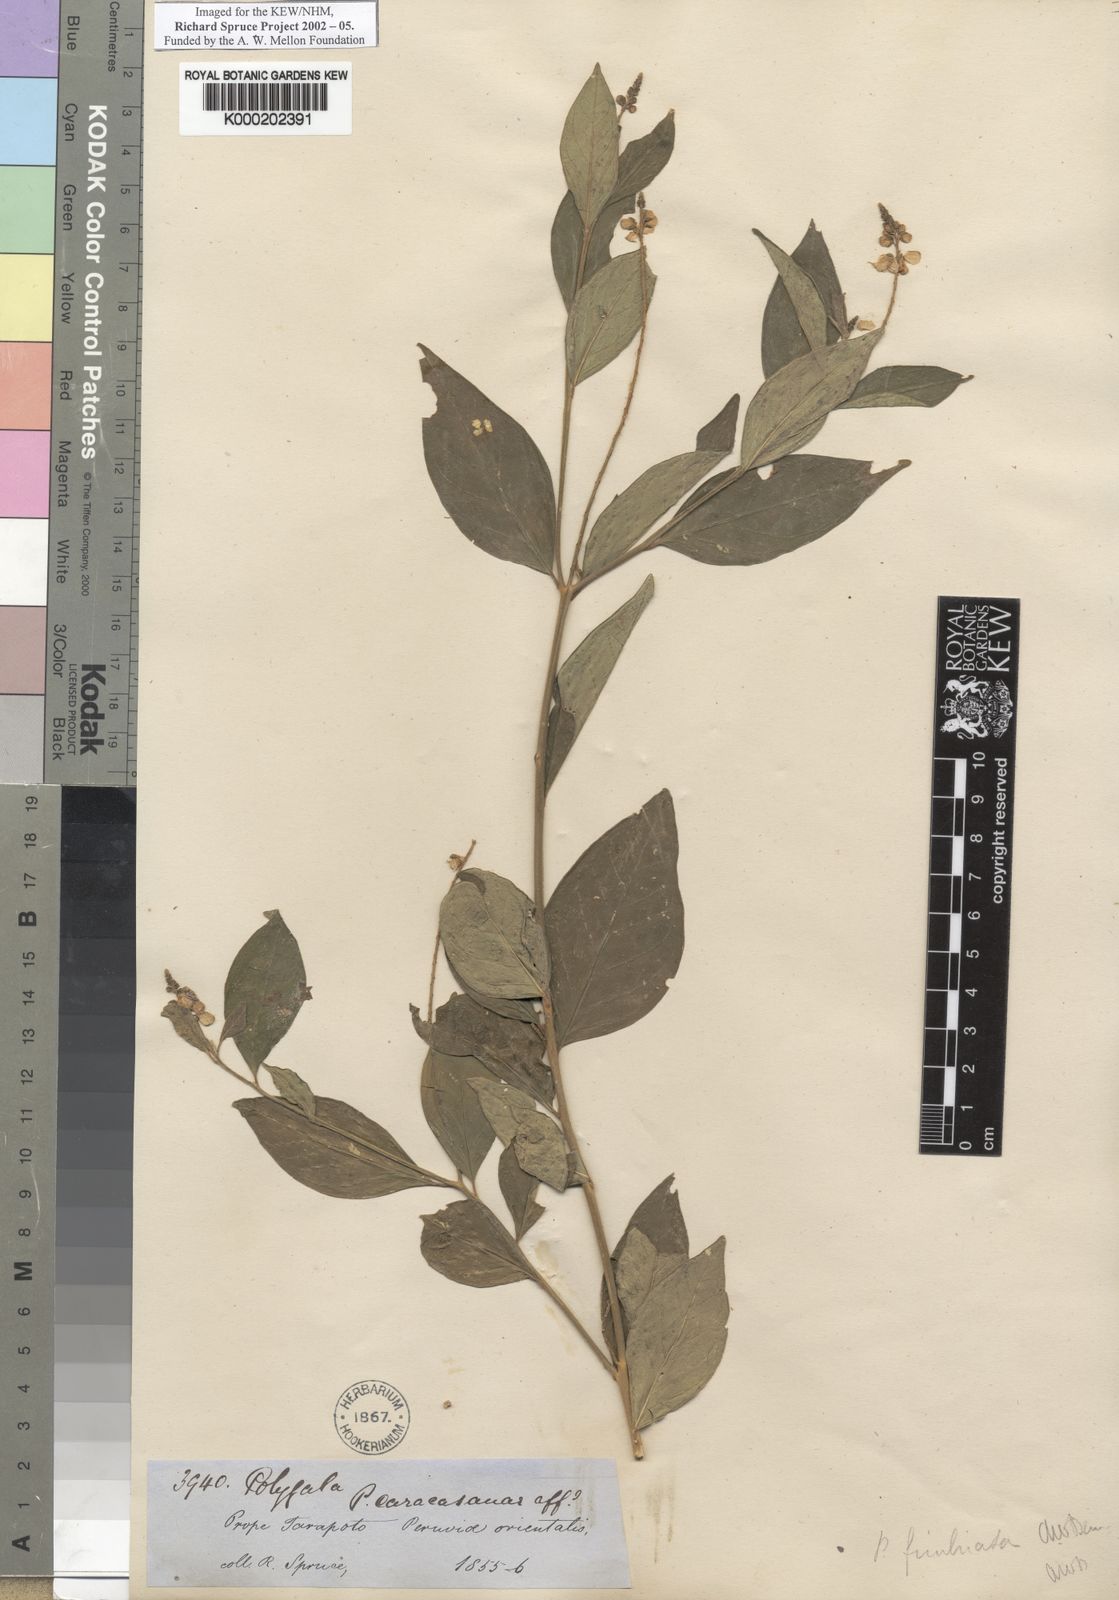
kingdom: Plantae
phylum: Tracheophyta
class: Magnoliopsida
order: Fabales
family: Polygalaceae
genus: Asemeia
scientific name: Asemeia acuminata
